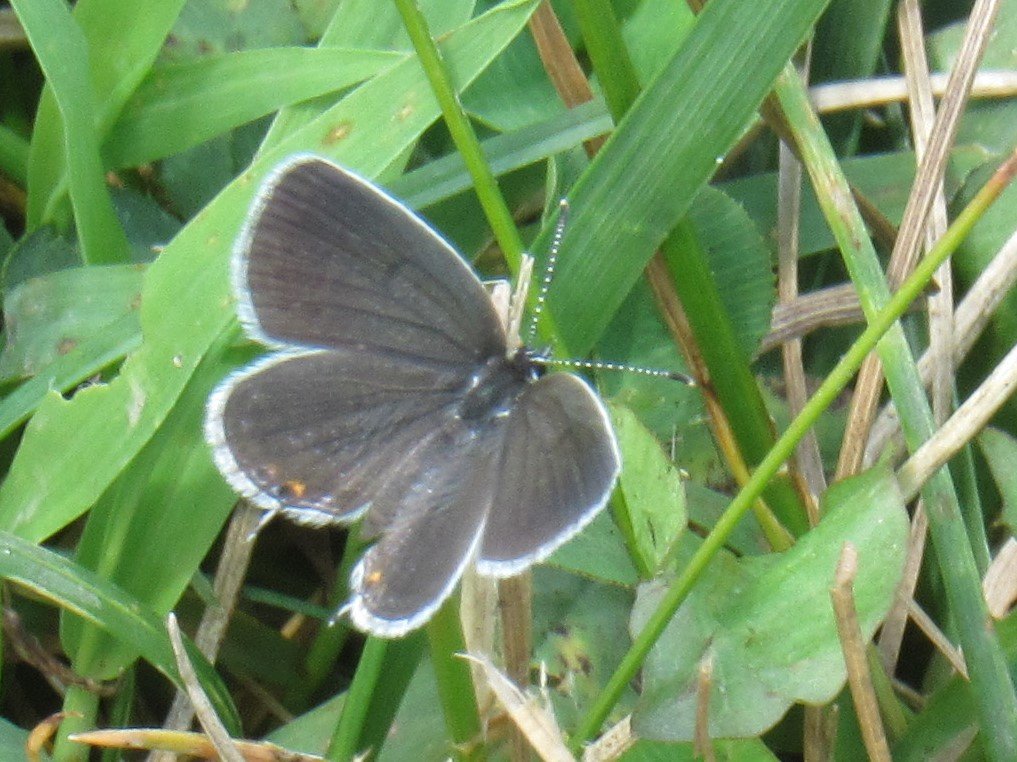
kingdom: Animalia
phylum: Arthropoda
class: Insecta
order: Lepidoptera
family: Lycaenidae
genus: Elkalyce
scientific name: Elkalyce comyntas
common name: Eastern Tailed-Blue
